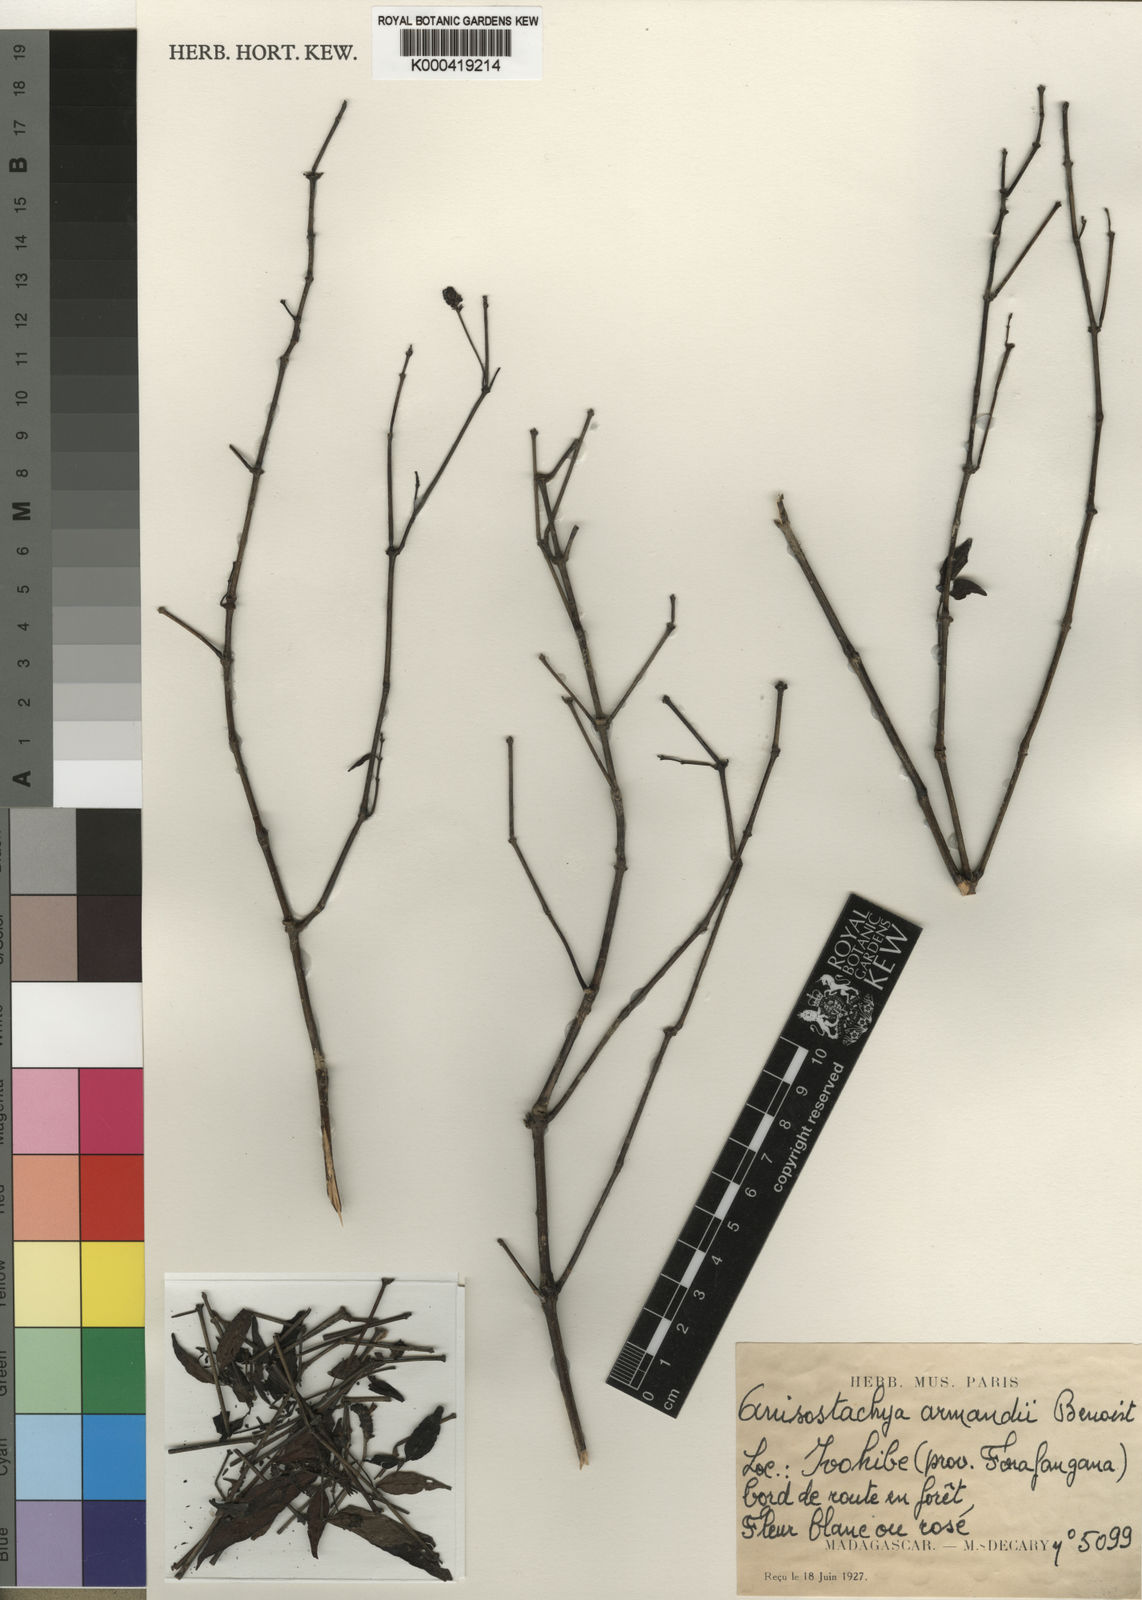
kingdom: Plantae
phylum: Tracheophyta
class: Magnoliopsida
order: Lamiales
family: Acanthaceae
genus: Justicia
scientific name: Justicia
